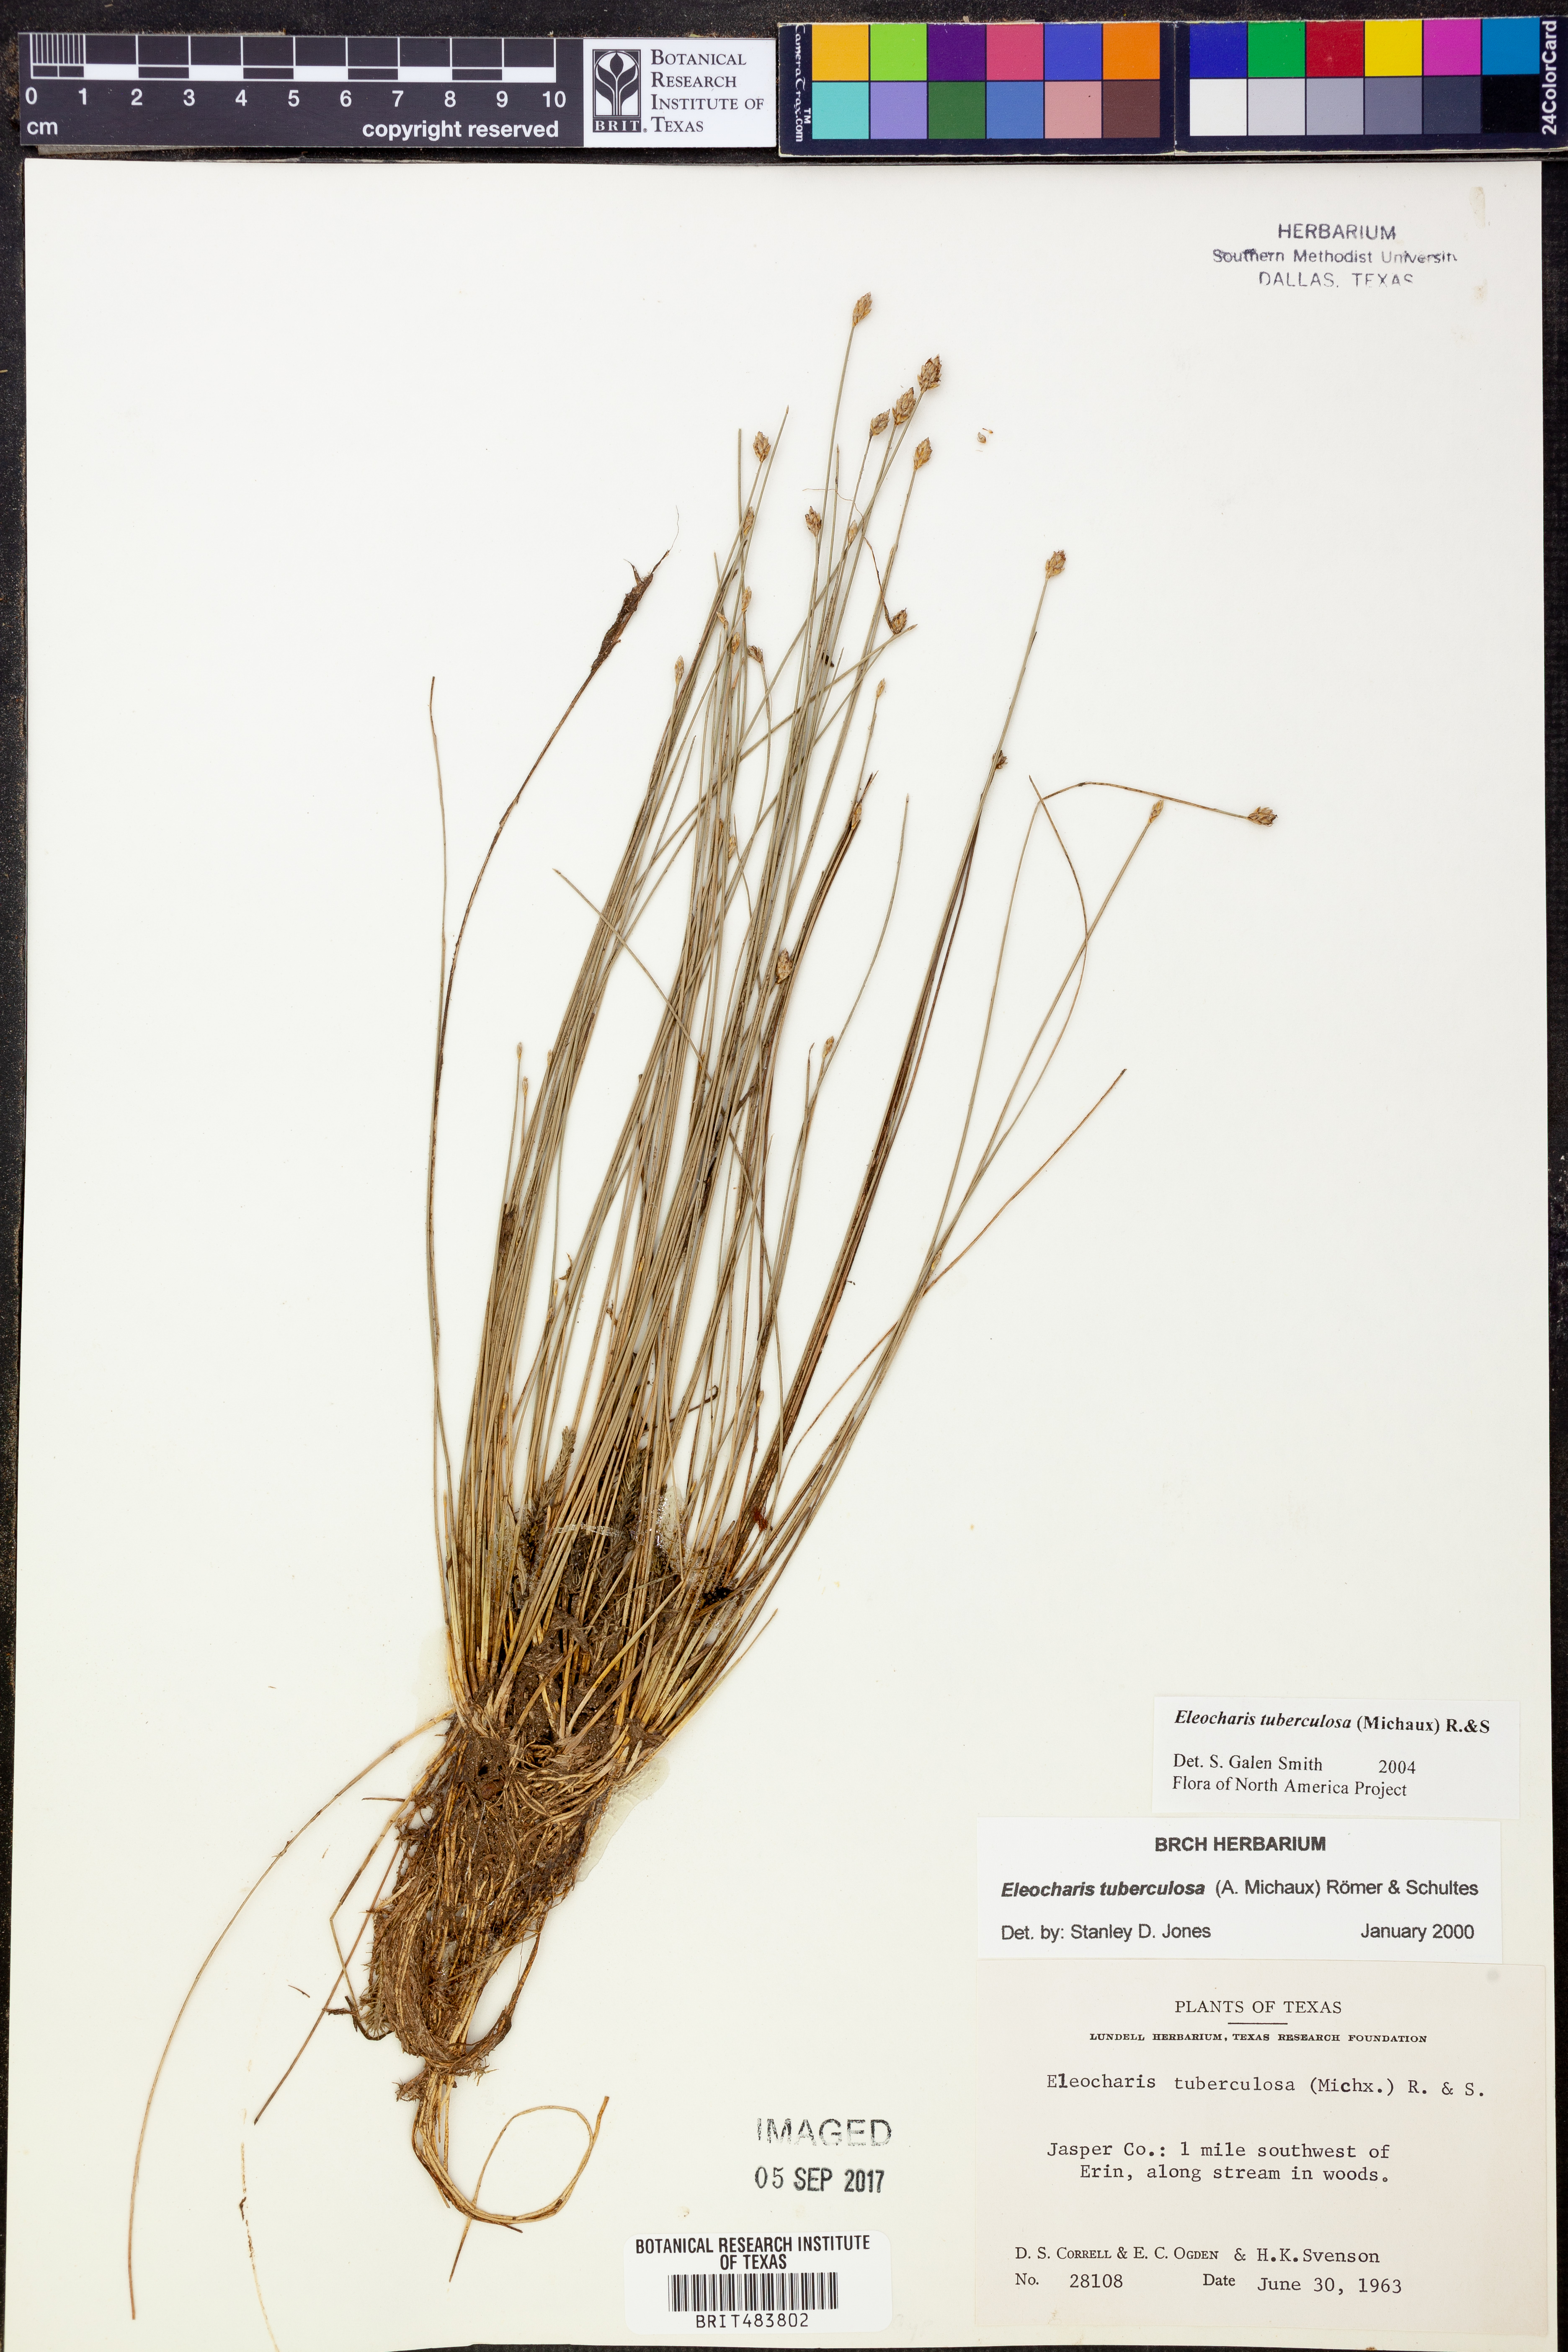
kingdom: Plantae
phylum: Tracheophyta
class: Liliopsida
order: Poales
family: Cyperaceae
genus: Eleocharis
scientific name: Eleocharis tuberculosa
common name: Cone-cup spikerush
